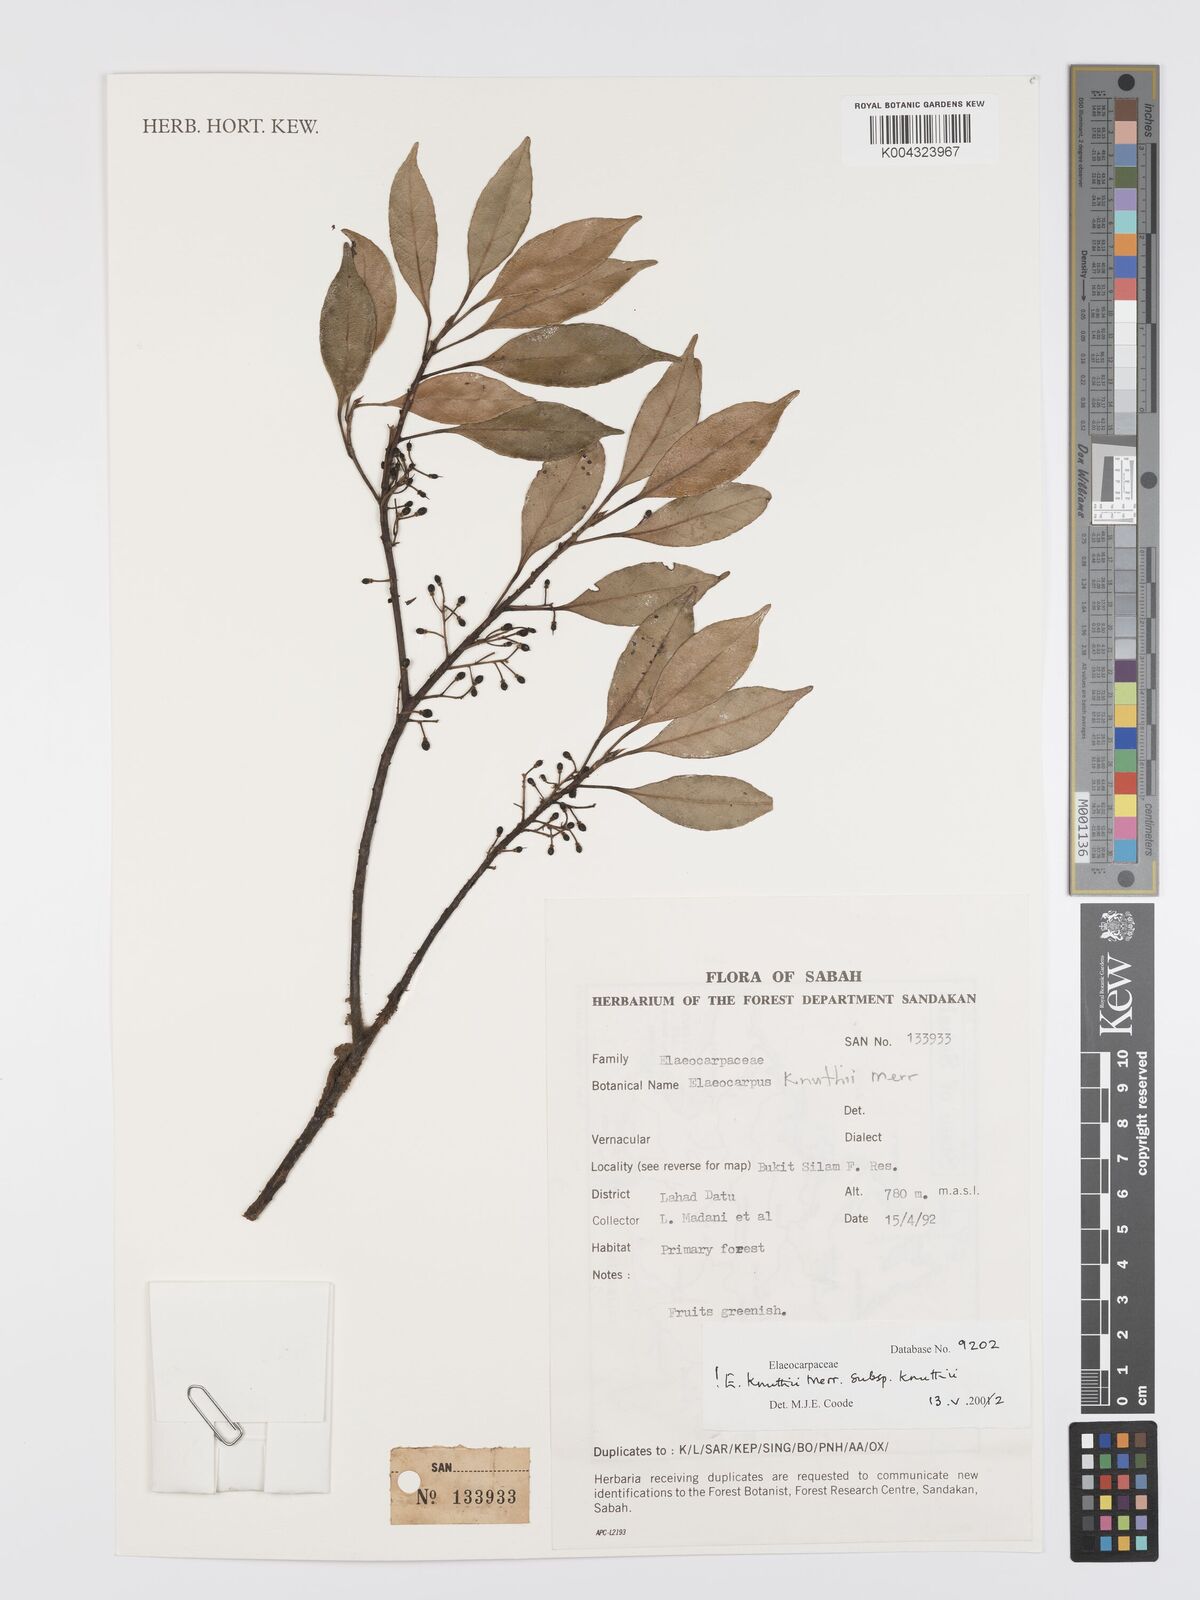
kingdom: Plantae
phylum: Tracheophyta
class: Magnoliopsida
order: Oxalidales
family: Elaeocarpaceae
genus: Elaeocarpus
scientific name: Elaeocarpus knuthii
